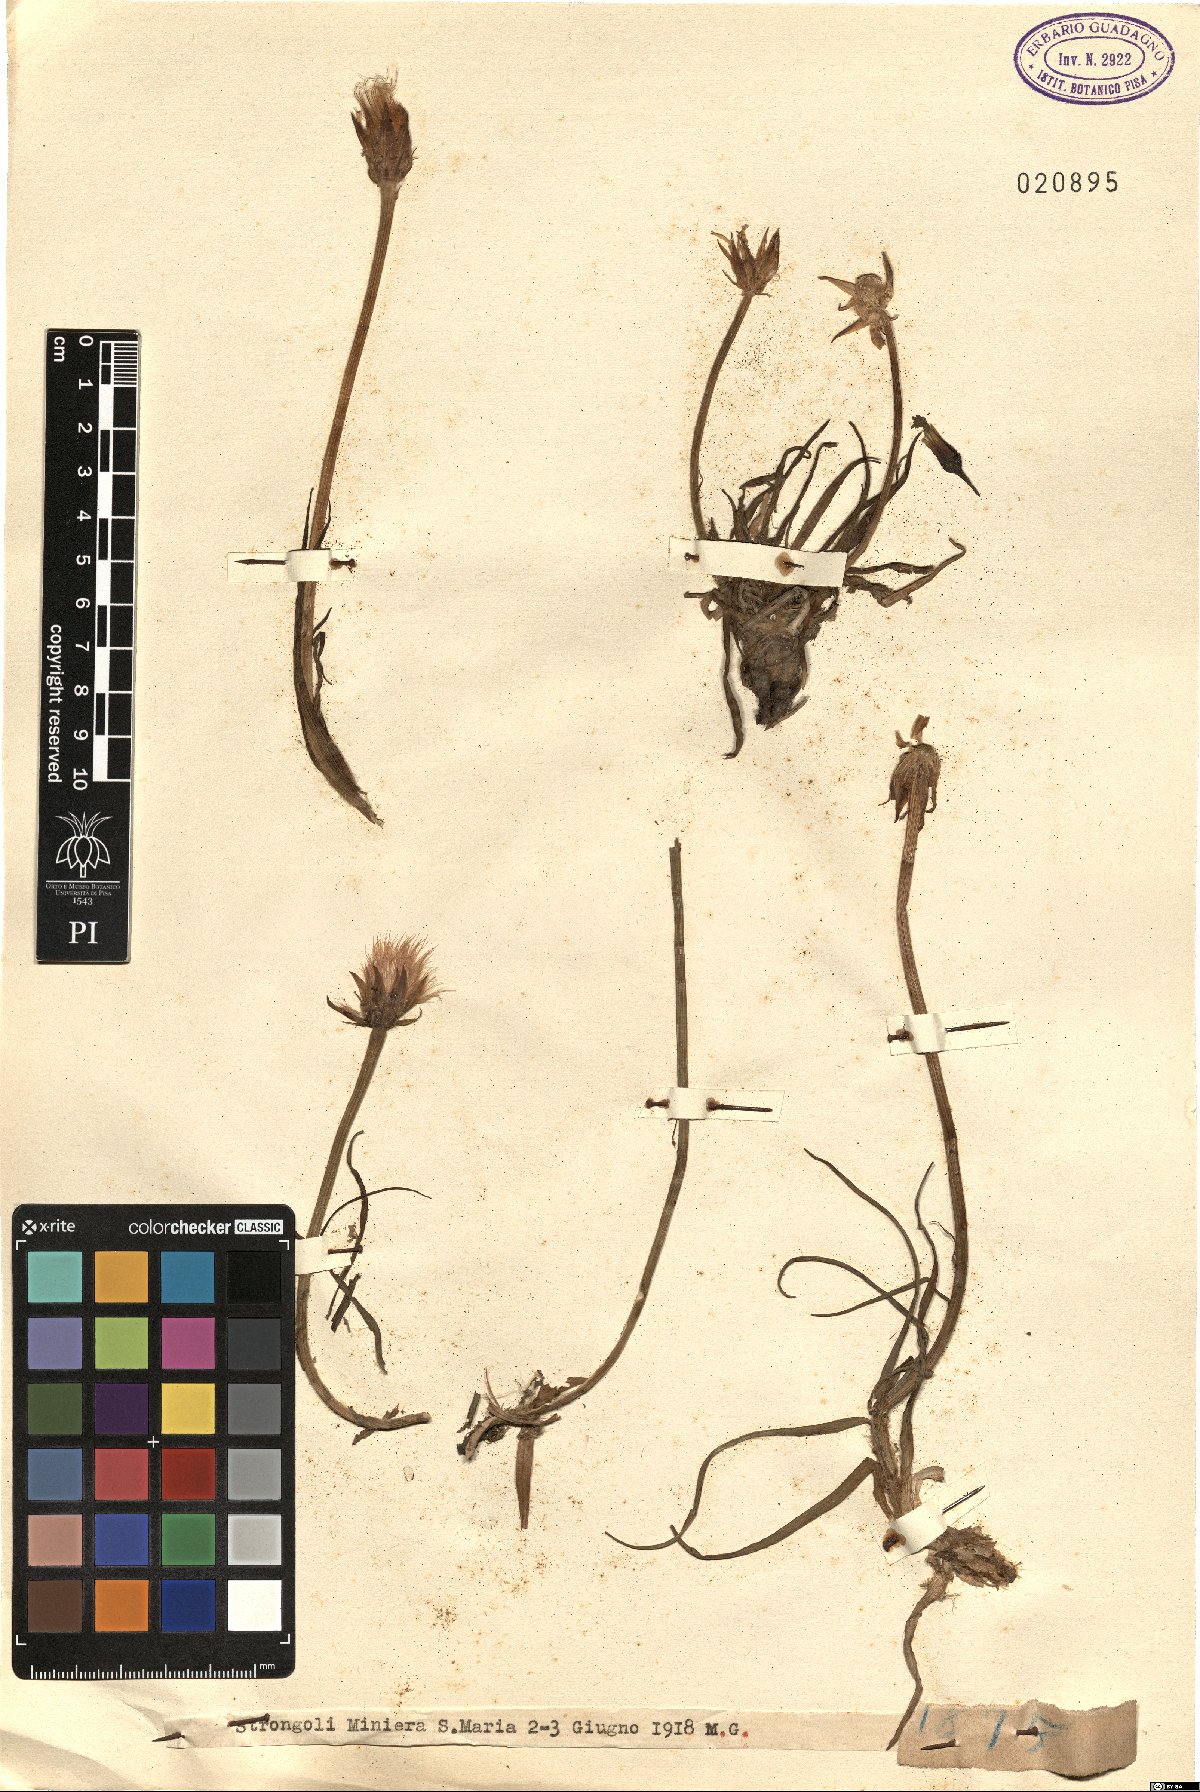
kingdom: Plantae
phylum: Tracheophyta
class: Magnoliopsida
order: Asterales
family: Asteraceae
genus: Scorzonera
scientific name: Scorzonera
